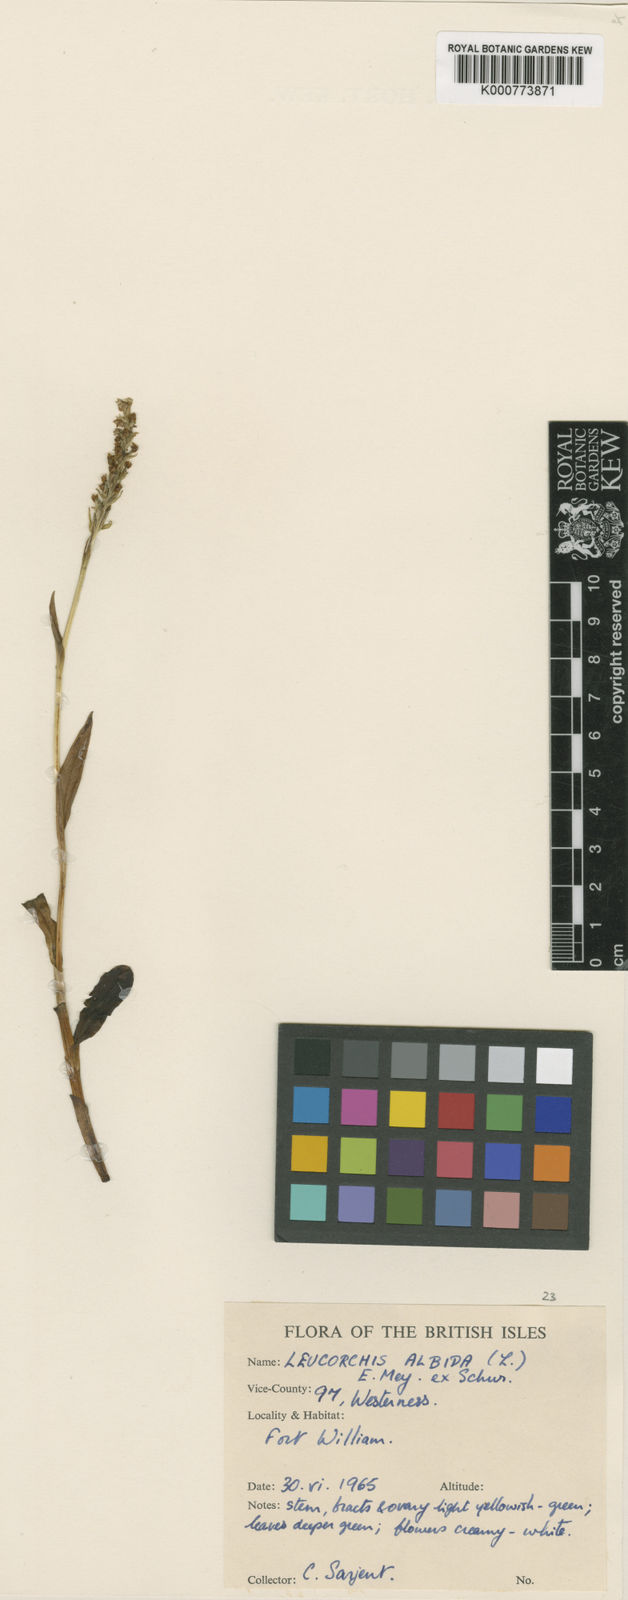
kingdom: Plantae
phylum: Tracheophyta
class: Liliopsida
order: Asparagales
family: Orchidaceae
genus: Pseudorchis
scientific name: Pseudorchis
